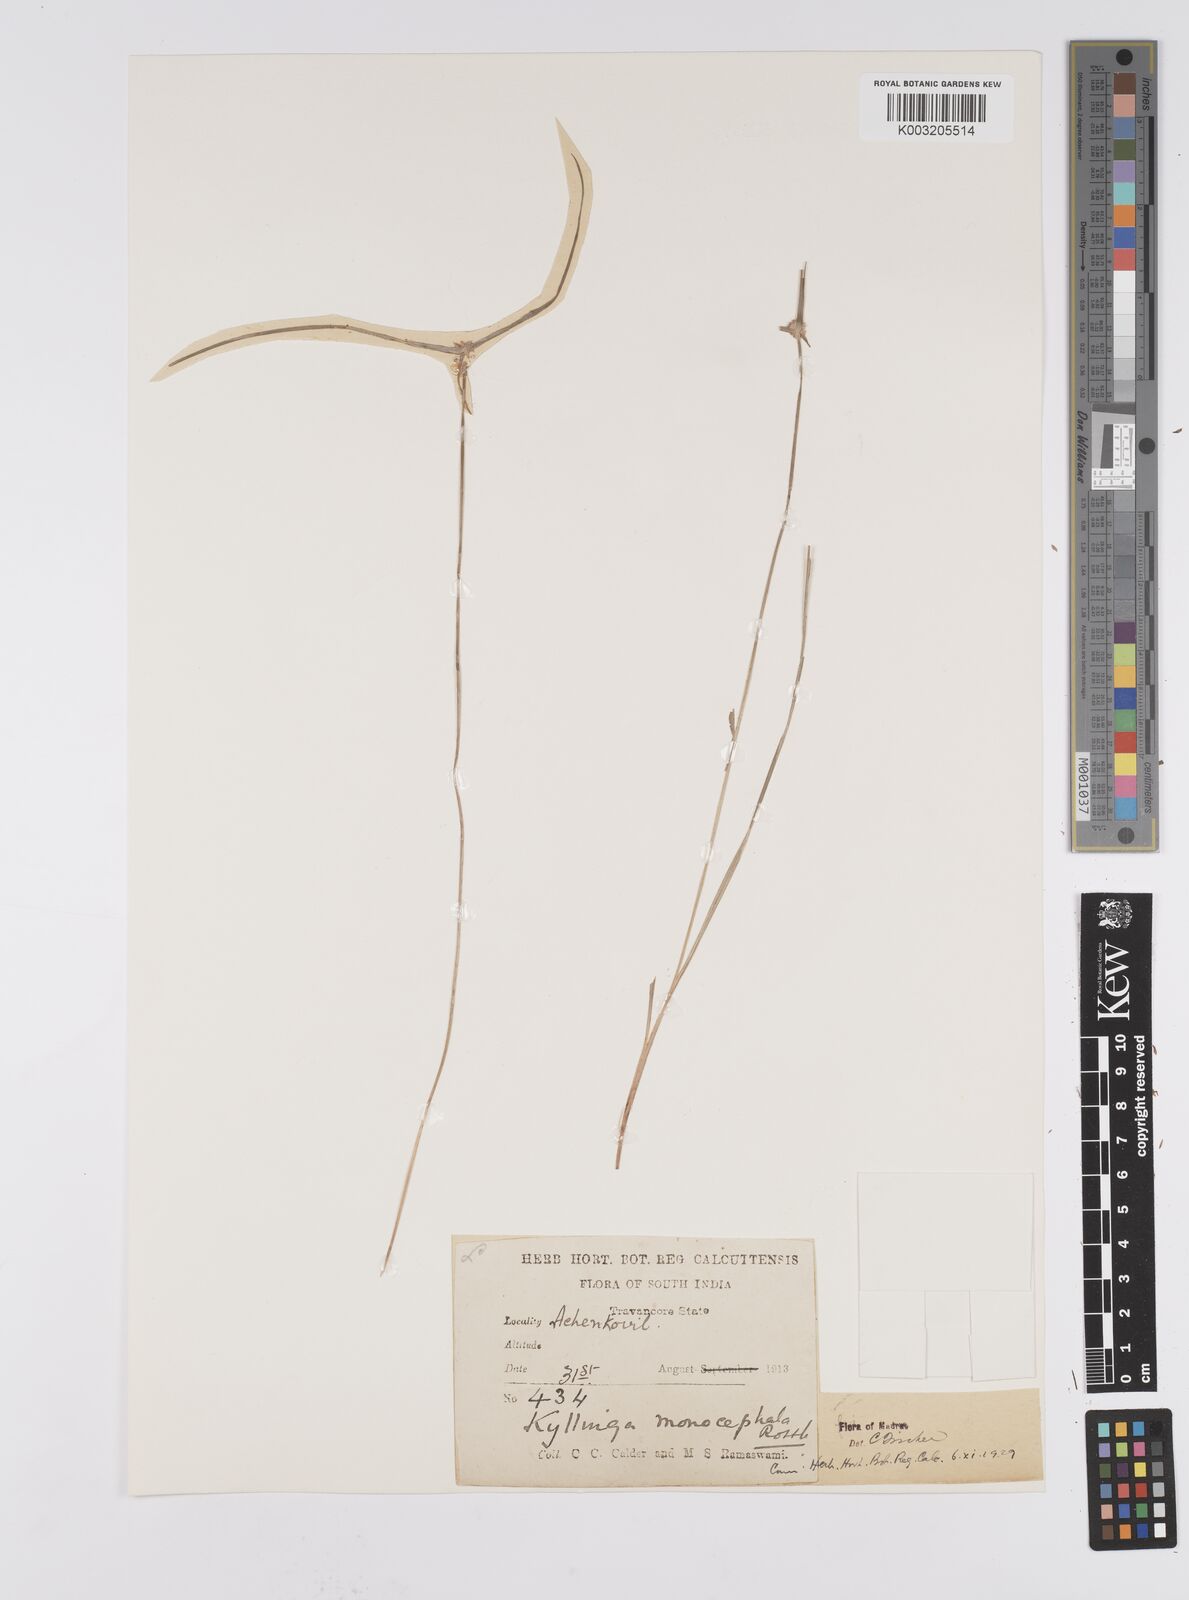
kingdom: Plantae
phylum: Tracheophyta
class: Liliopsida
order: Poales
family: Cyperaceae
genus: Cyperus
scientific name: Cyperus nemoralis
